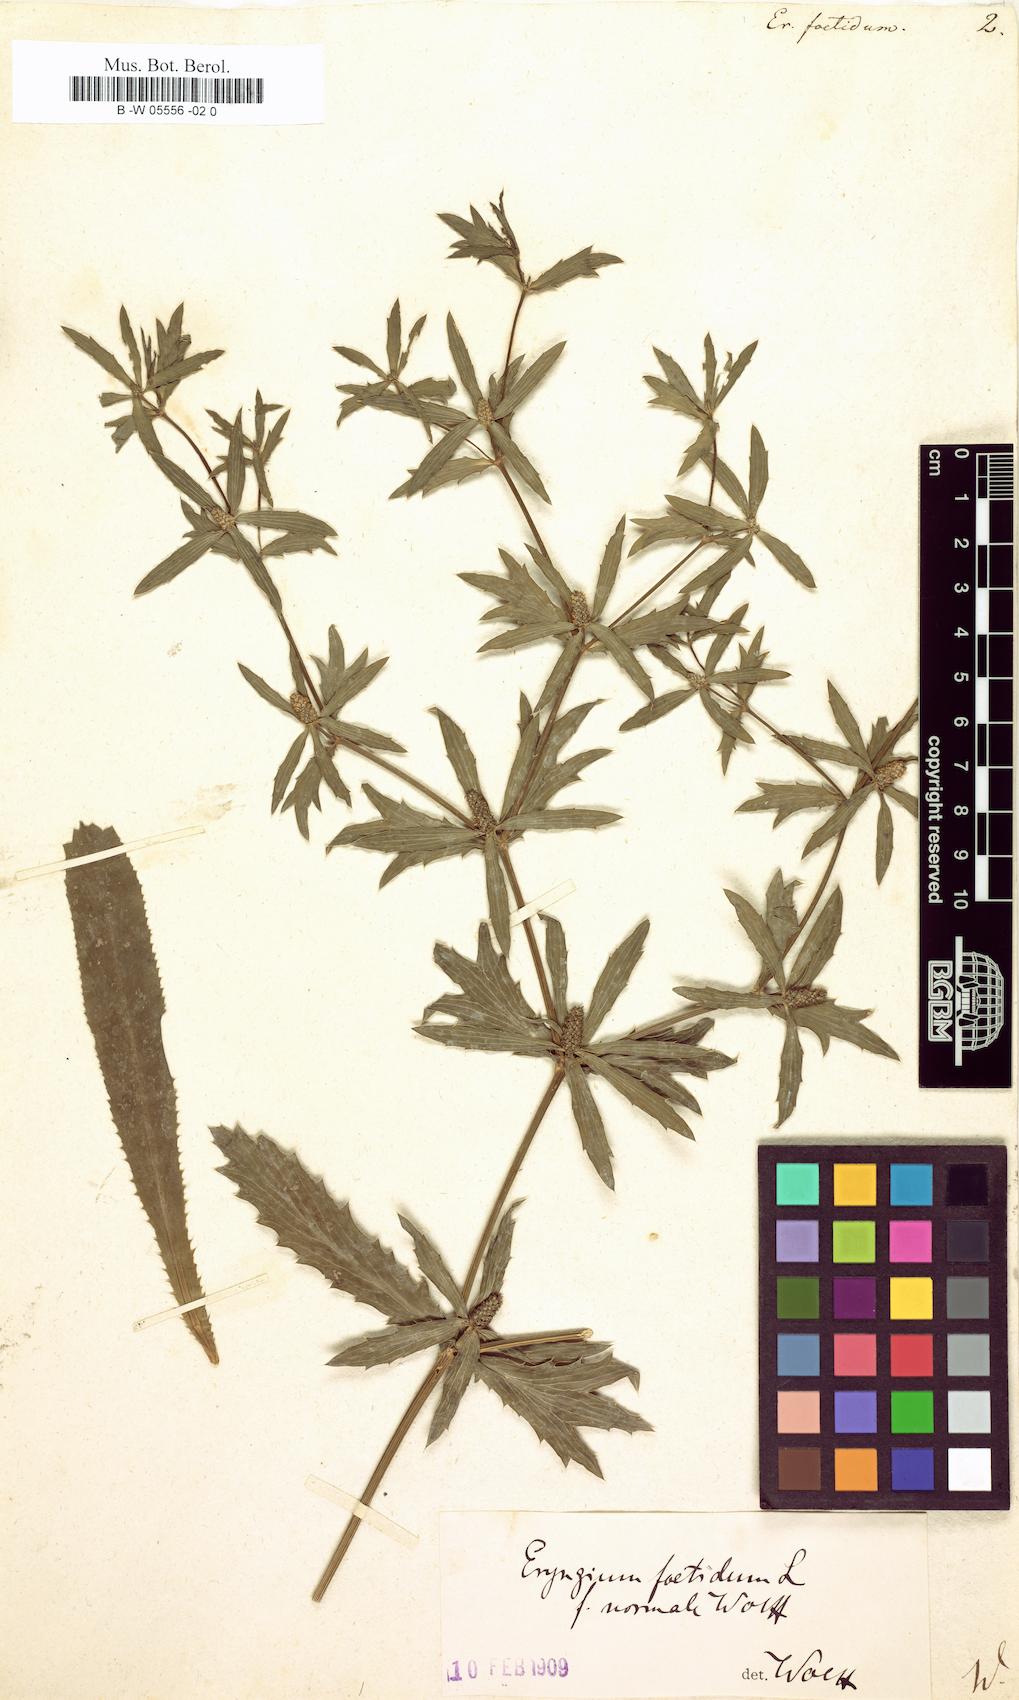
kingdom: Plantae
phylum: Tracheophyta
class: Magnoliopsida
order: Apiales
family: Apiaceae
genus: Eryngium
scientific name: Eryngium foetidum
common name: Fitweed
